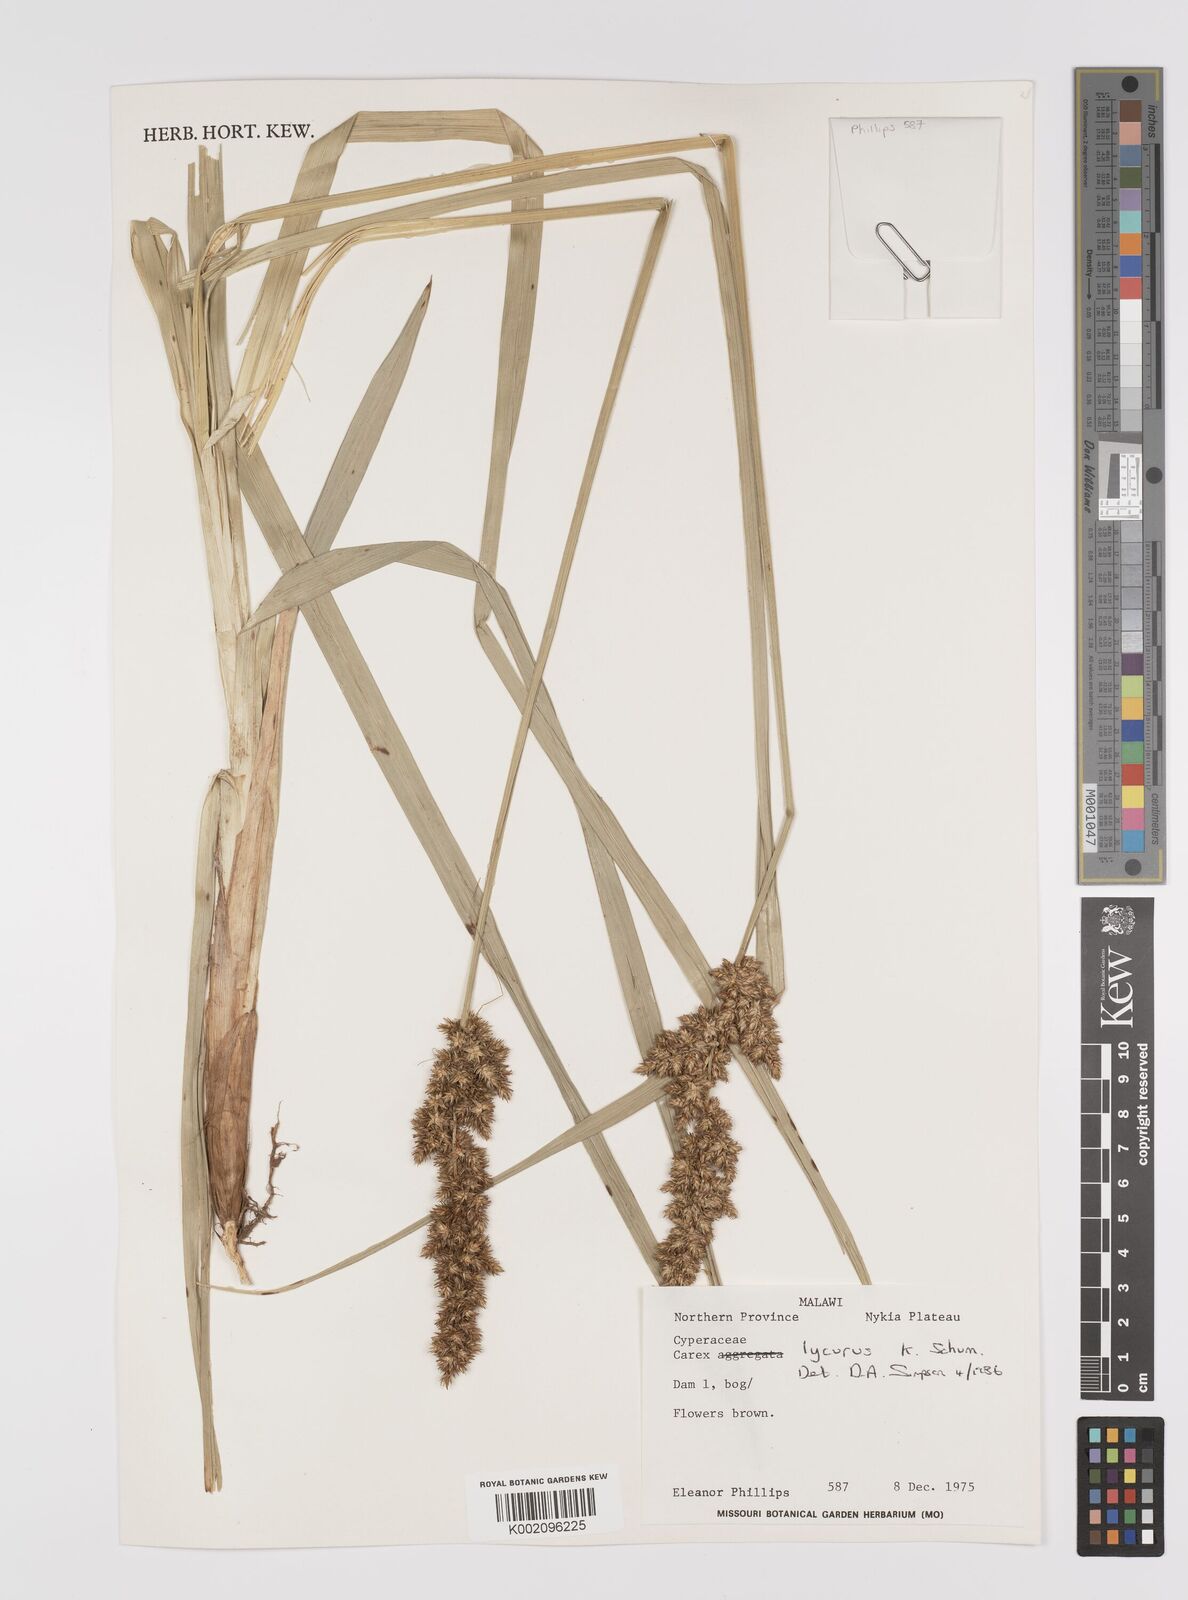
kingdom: Plantae
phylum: Tracheophyta
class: Liliopsida
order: Poales
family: Cyperaceae
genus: Carex
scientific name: Carex lycurus
